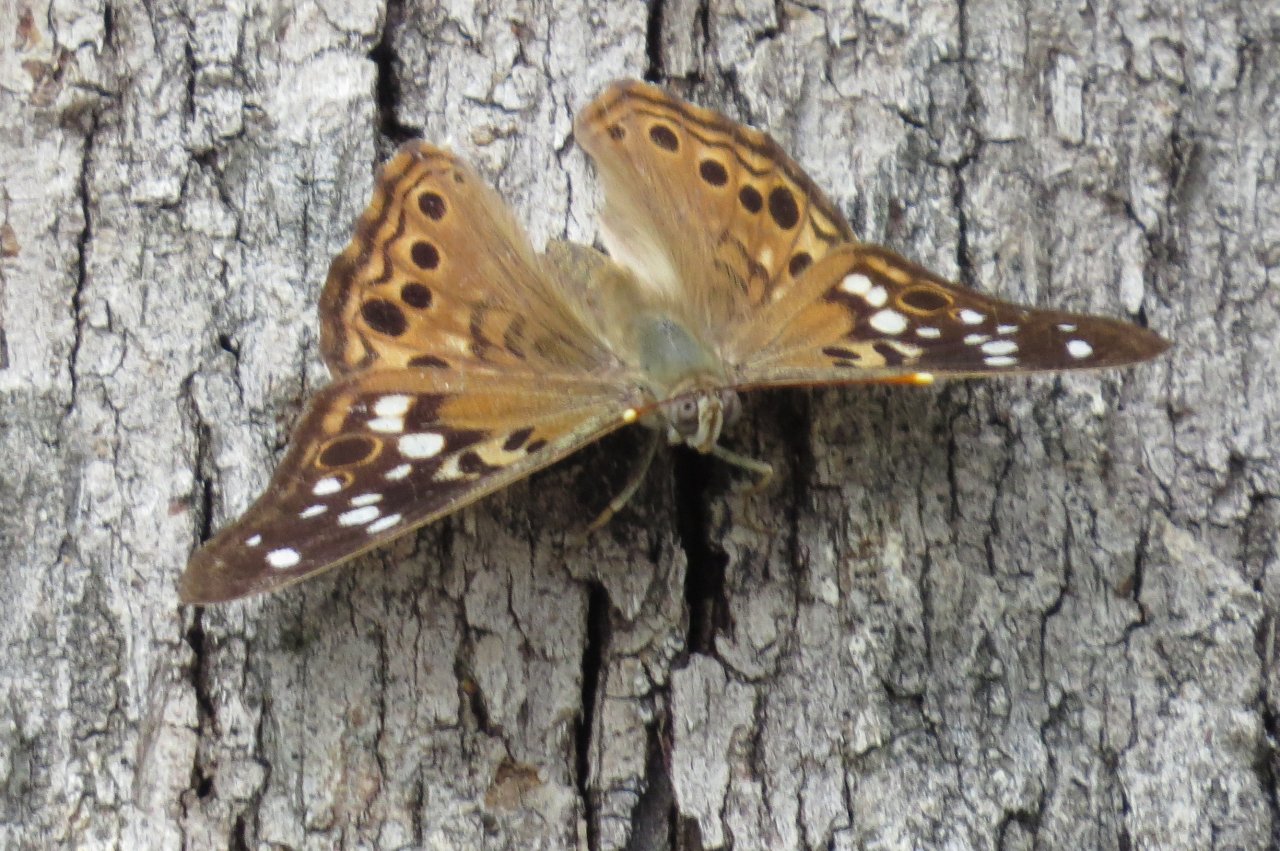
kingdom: Animalia
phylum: Arthropoda
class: Insecta
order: Lepidoptera
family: Nymphalidae
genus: Asterocampa
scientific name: Asterocampa celtis
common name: Hackberry Emperor
